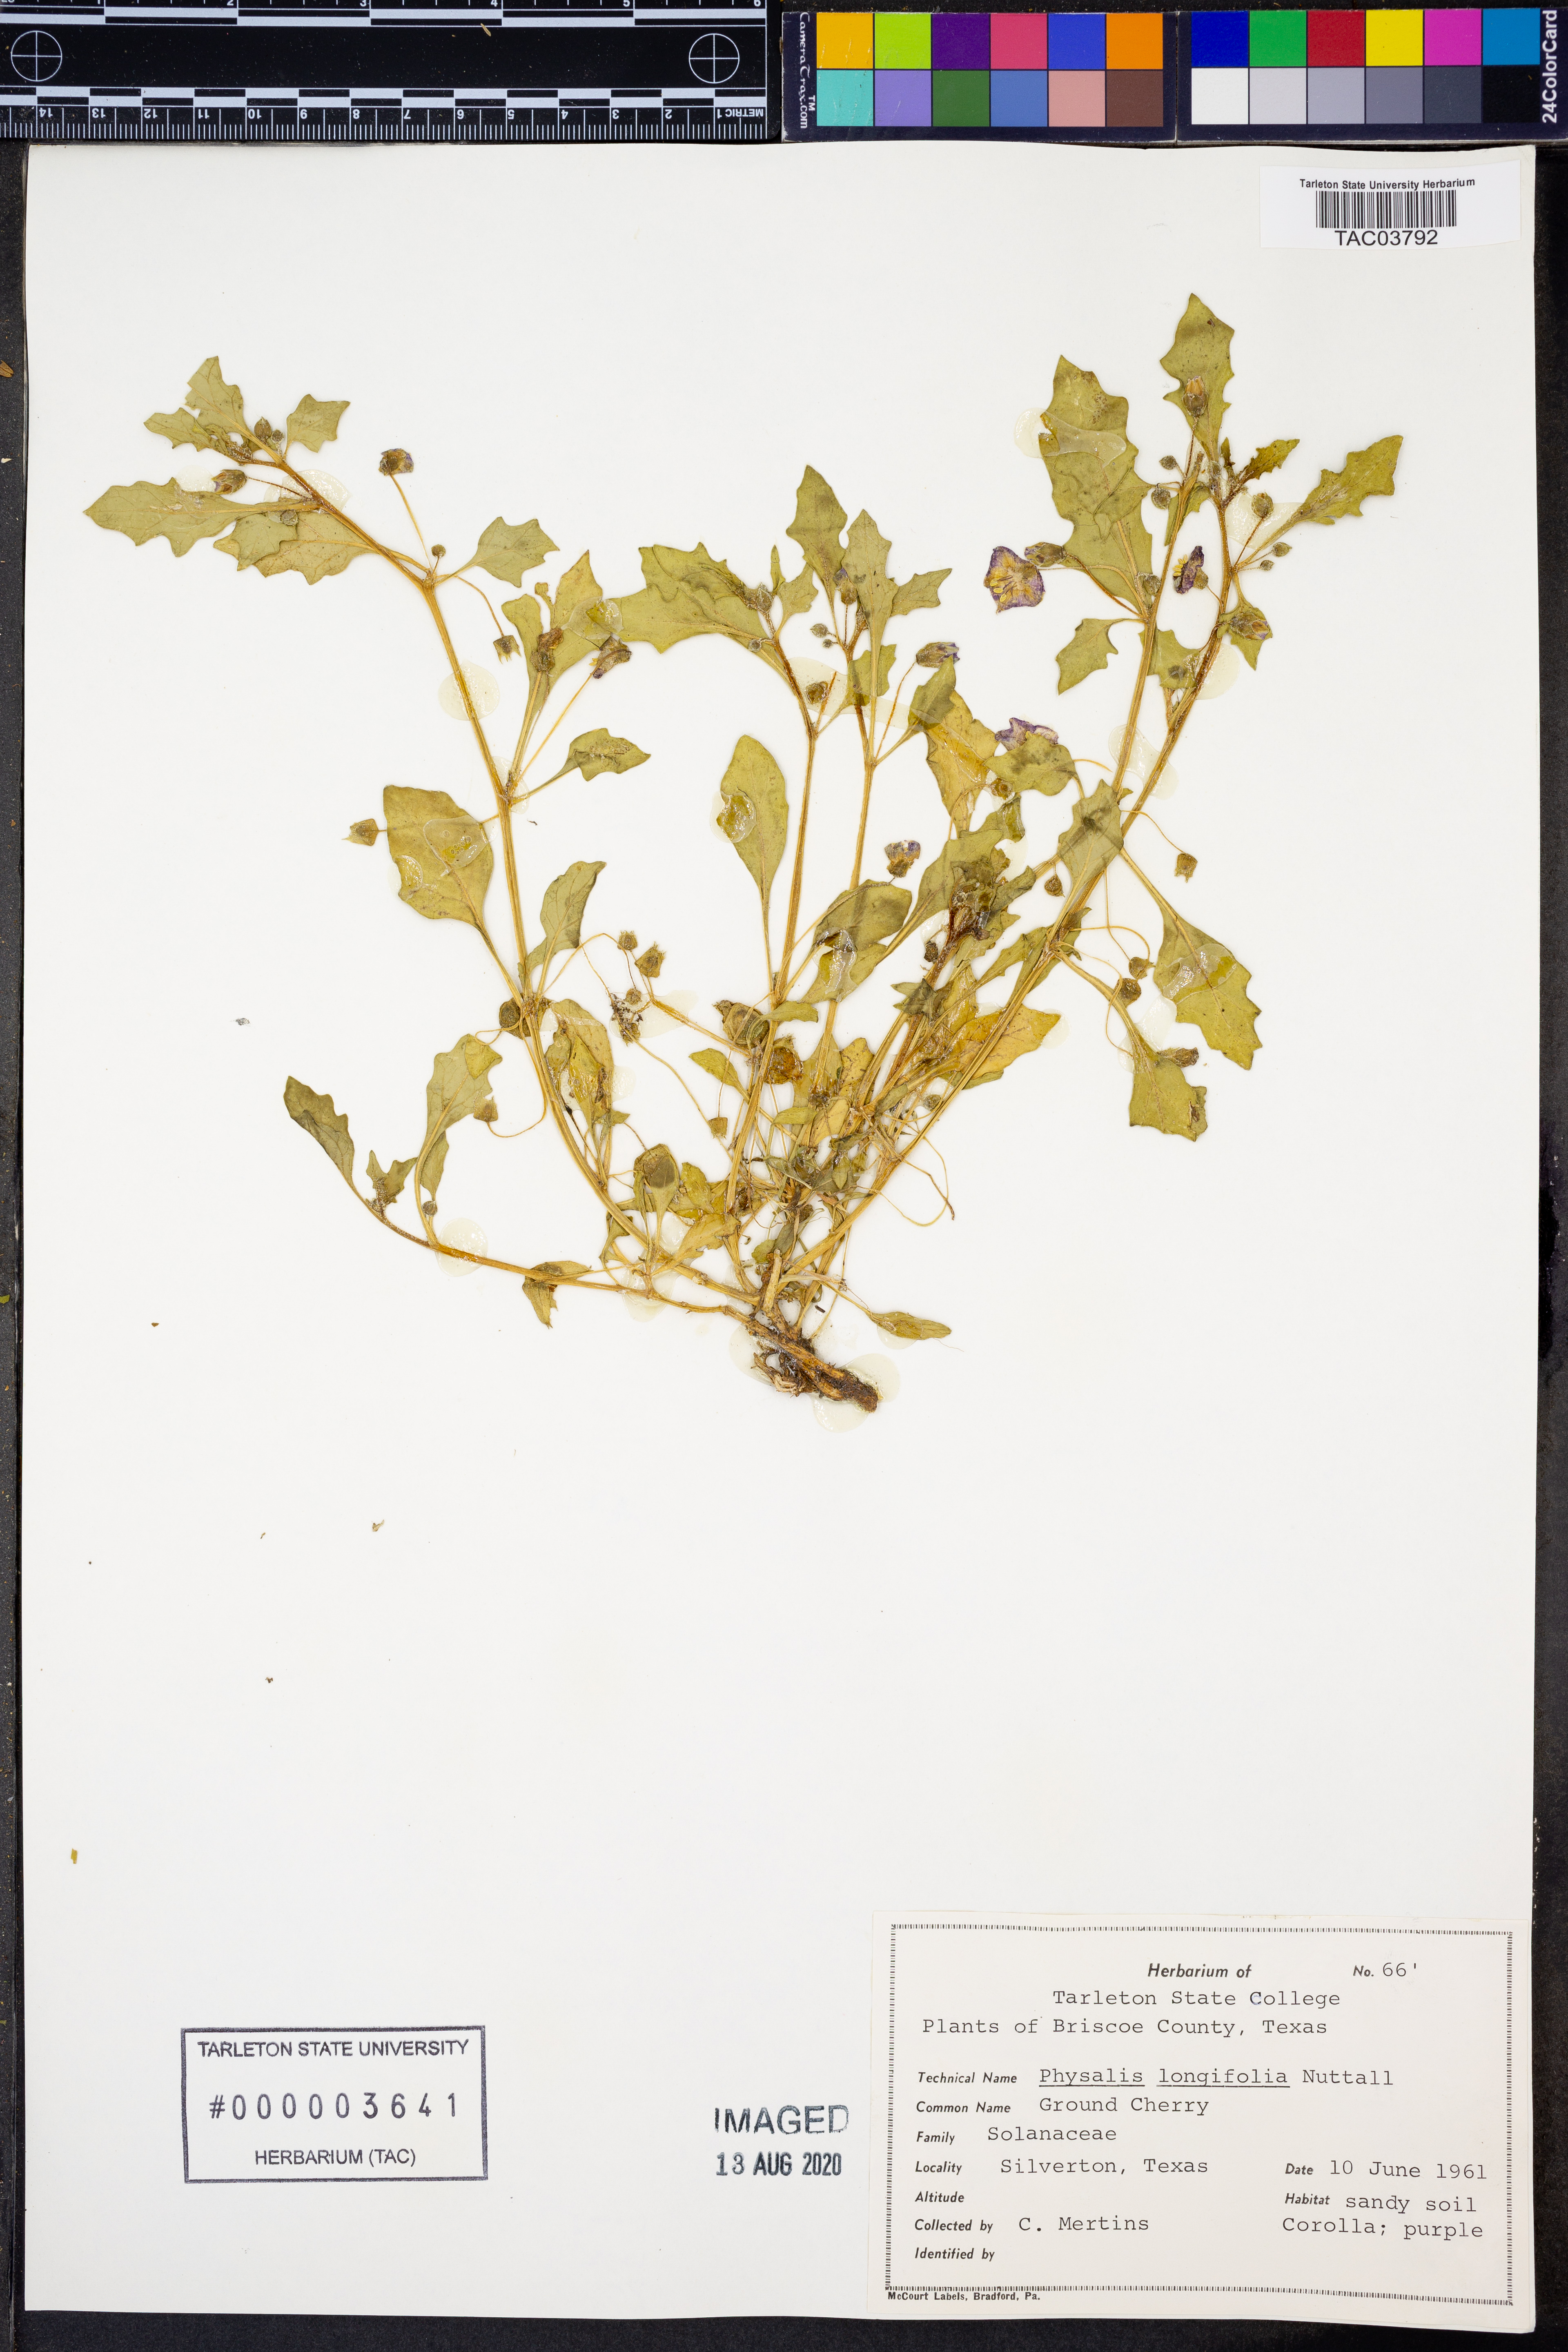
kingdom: Plantae
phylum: Tracheophyta
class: Magnoliopsida
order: Solanales
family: Solanaceae
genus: Physalis
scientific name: Physalis longifolia
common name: Common ground-cherry
